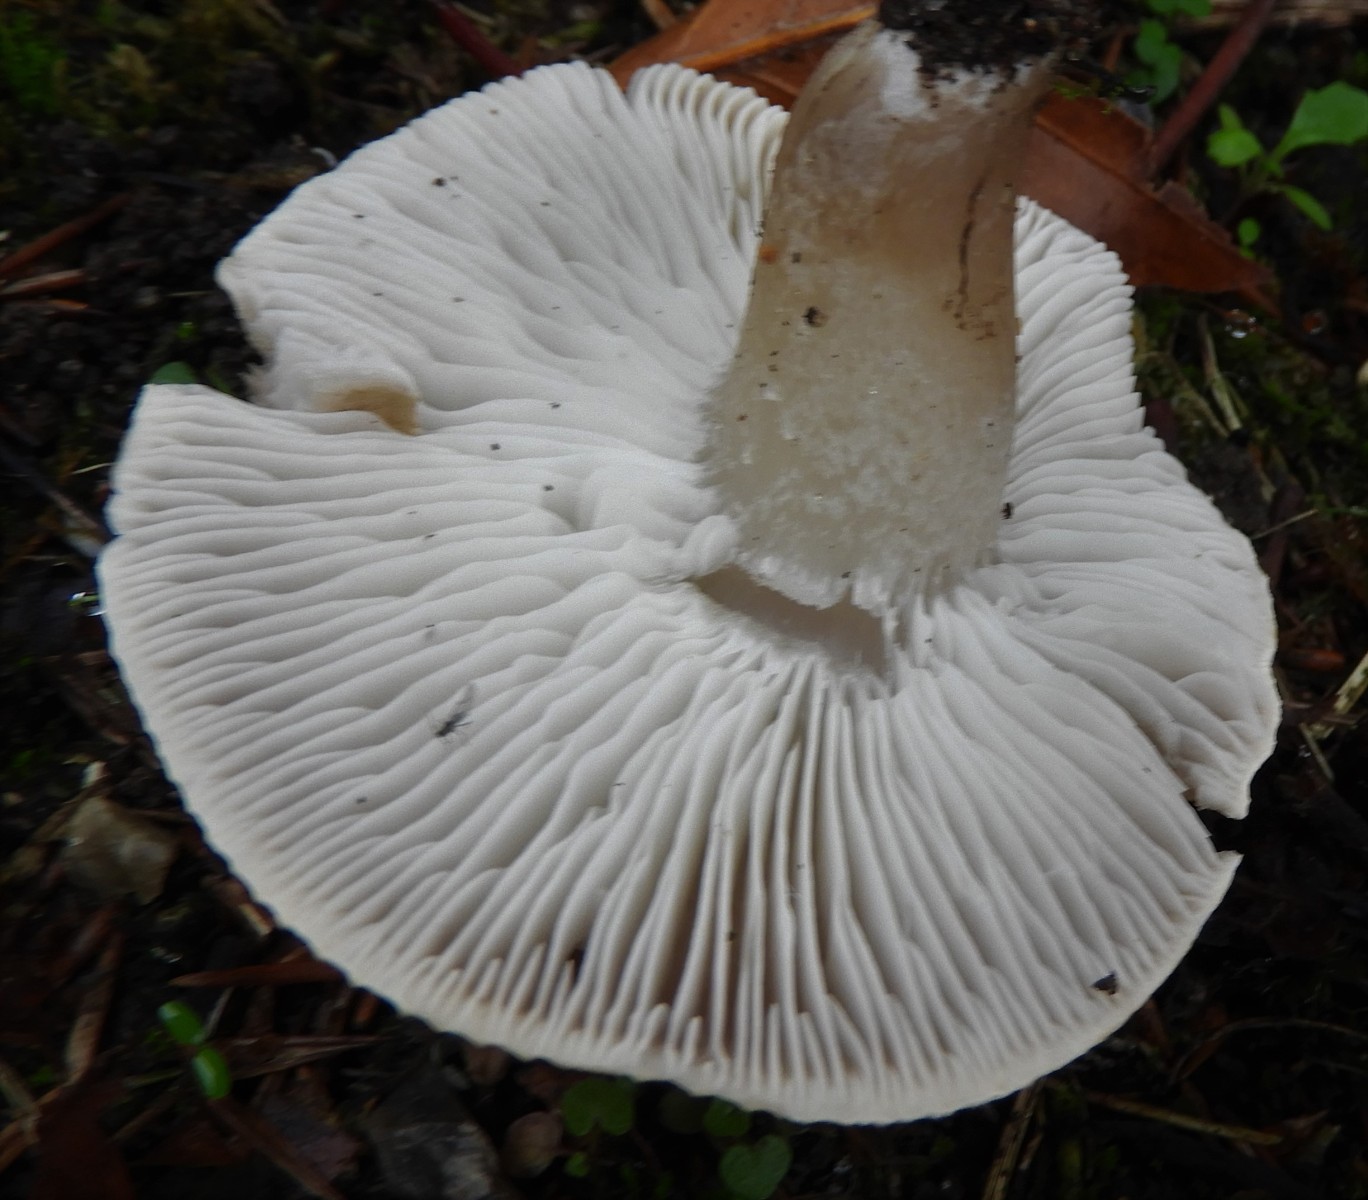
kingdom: Fungi
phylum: Basidiomycota
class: Agaricomycetes
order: Agaricales
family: Tricholomataceae
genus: Tricholoma
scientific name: Tricholoma scalpturatum
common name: gulplettet ridderhat
